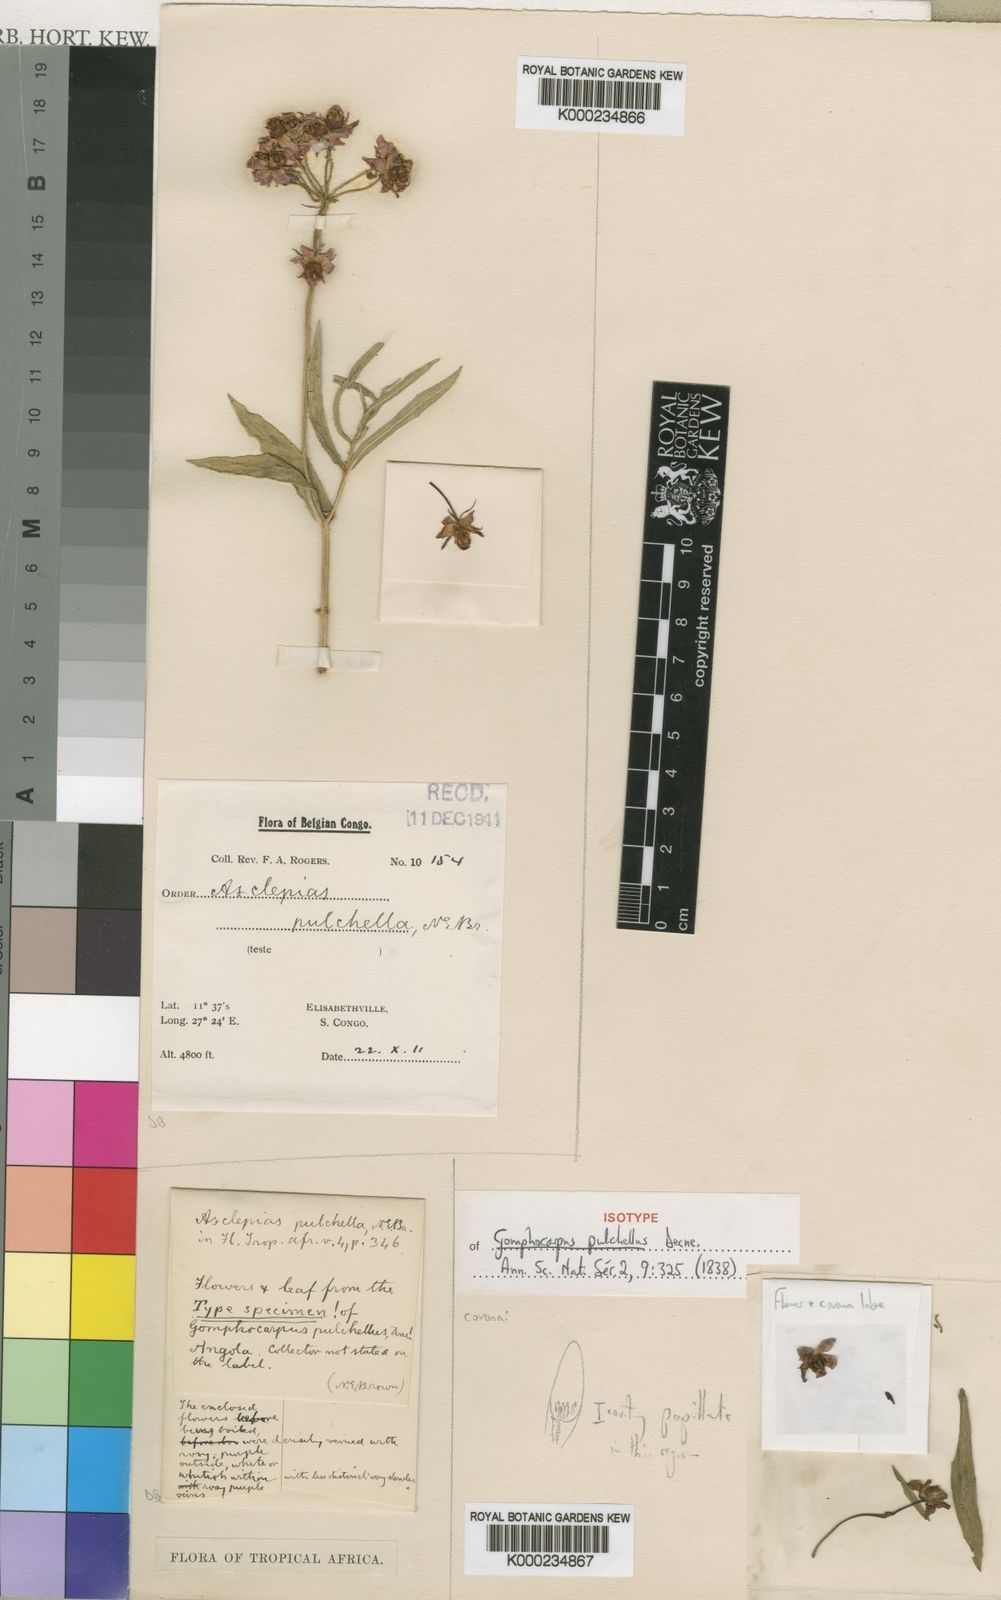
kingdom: Plantae
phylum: Tracheophyta
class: Magnoliopsida
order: Gentianales
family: Apocynaceae
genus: Asclepias
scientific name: Asclepias ameliae
